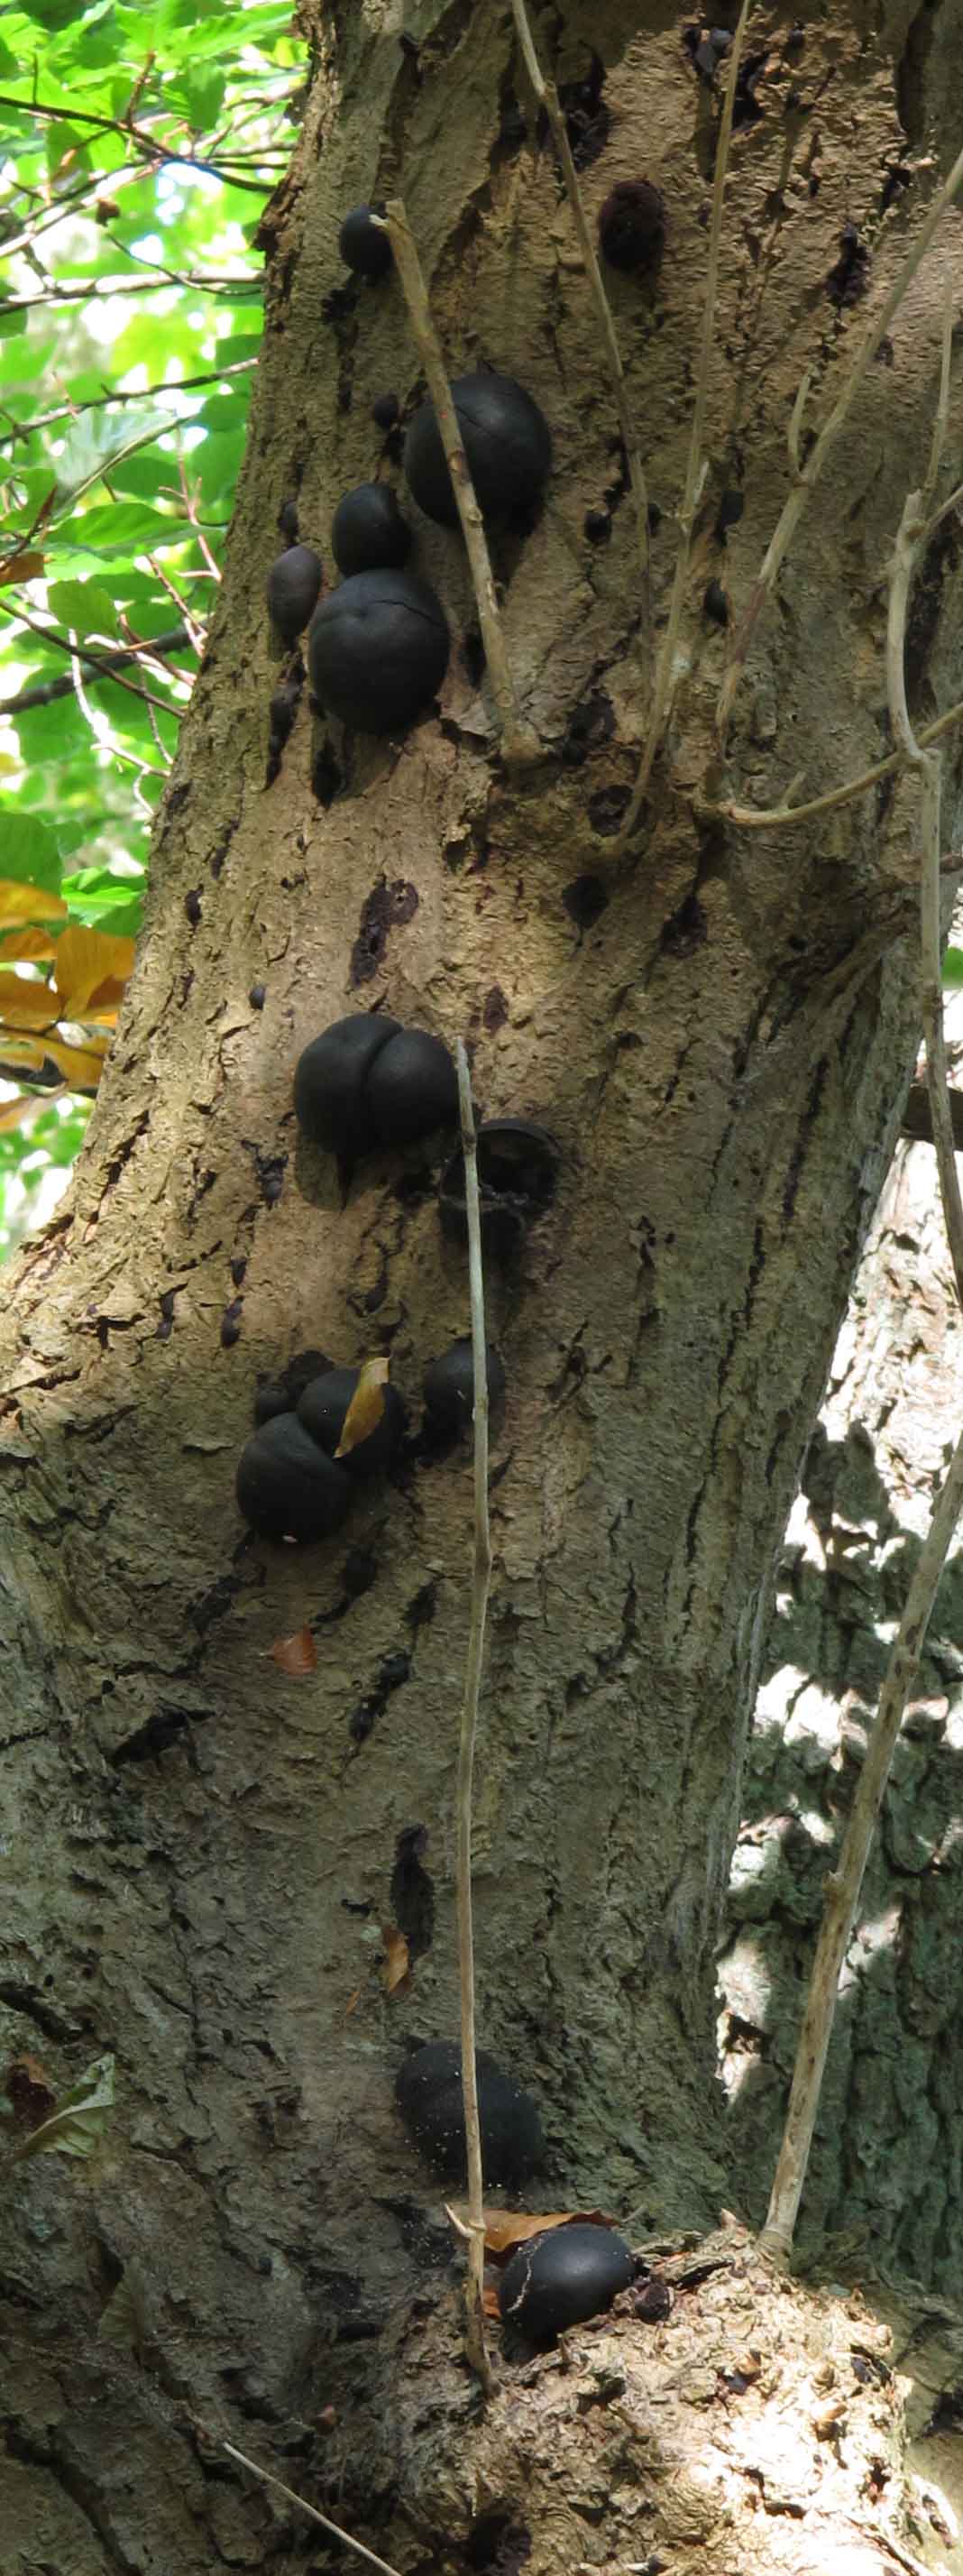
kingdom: Fungi
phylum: Ascomycota
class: Sordariomycetes
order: Xylariales
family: Hypoxylaceae
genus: Daldinia
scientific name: Daldinia concentrica
